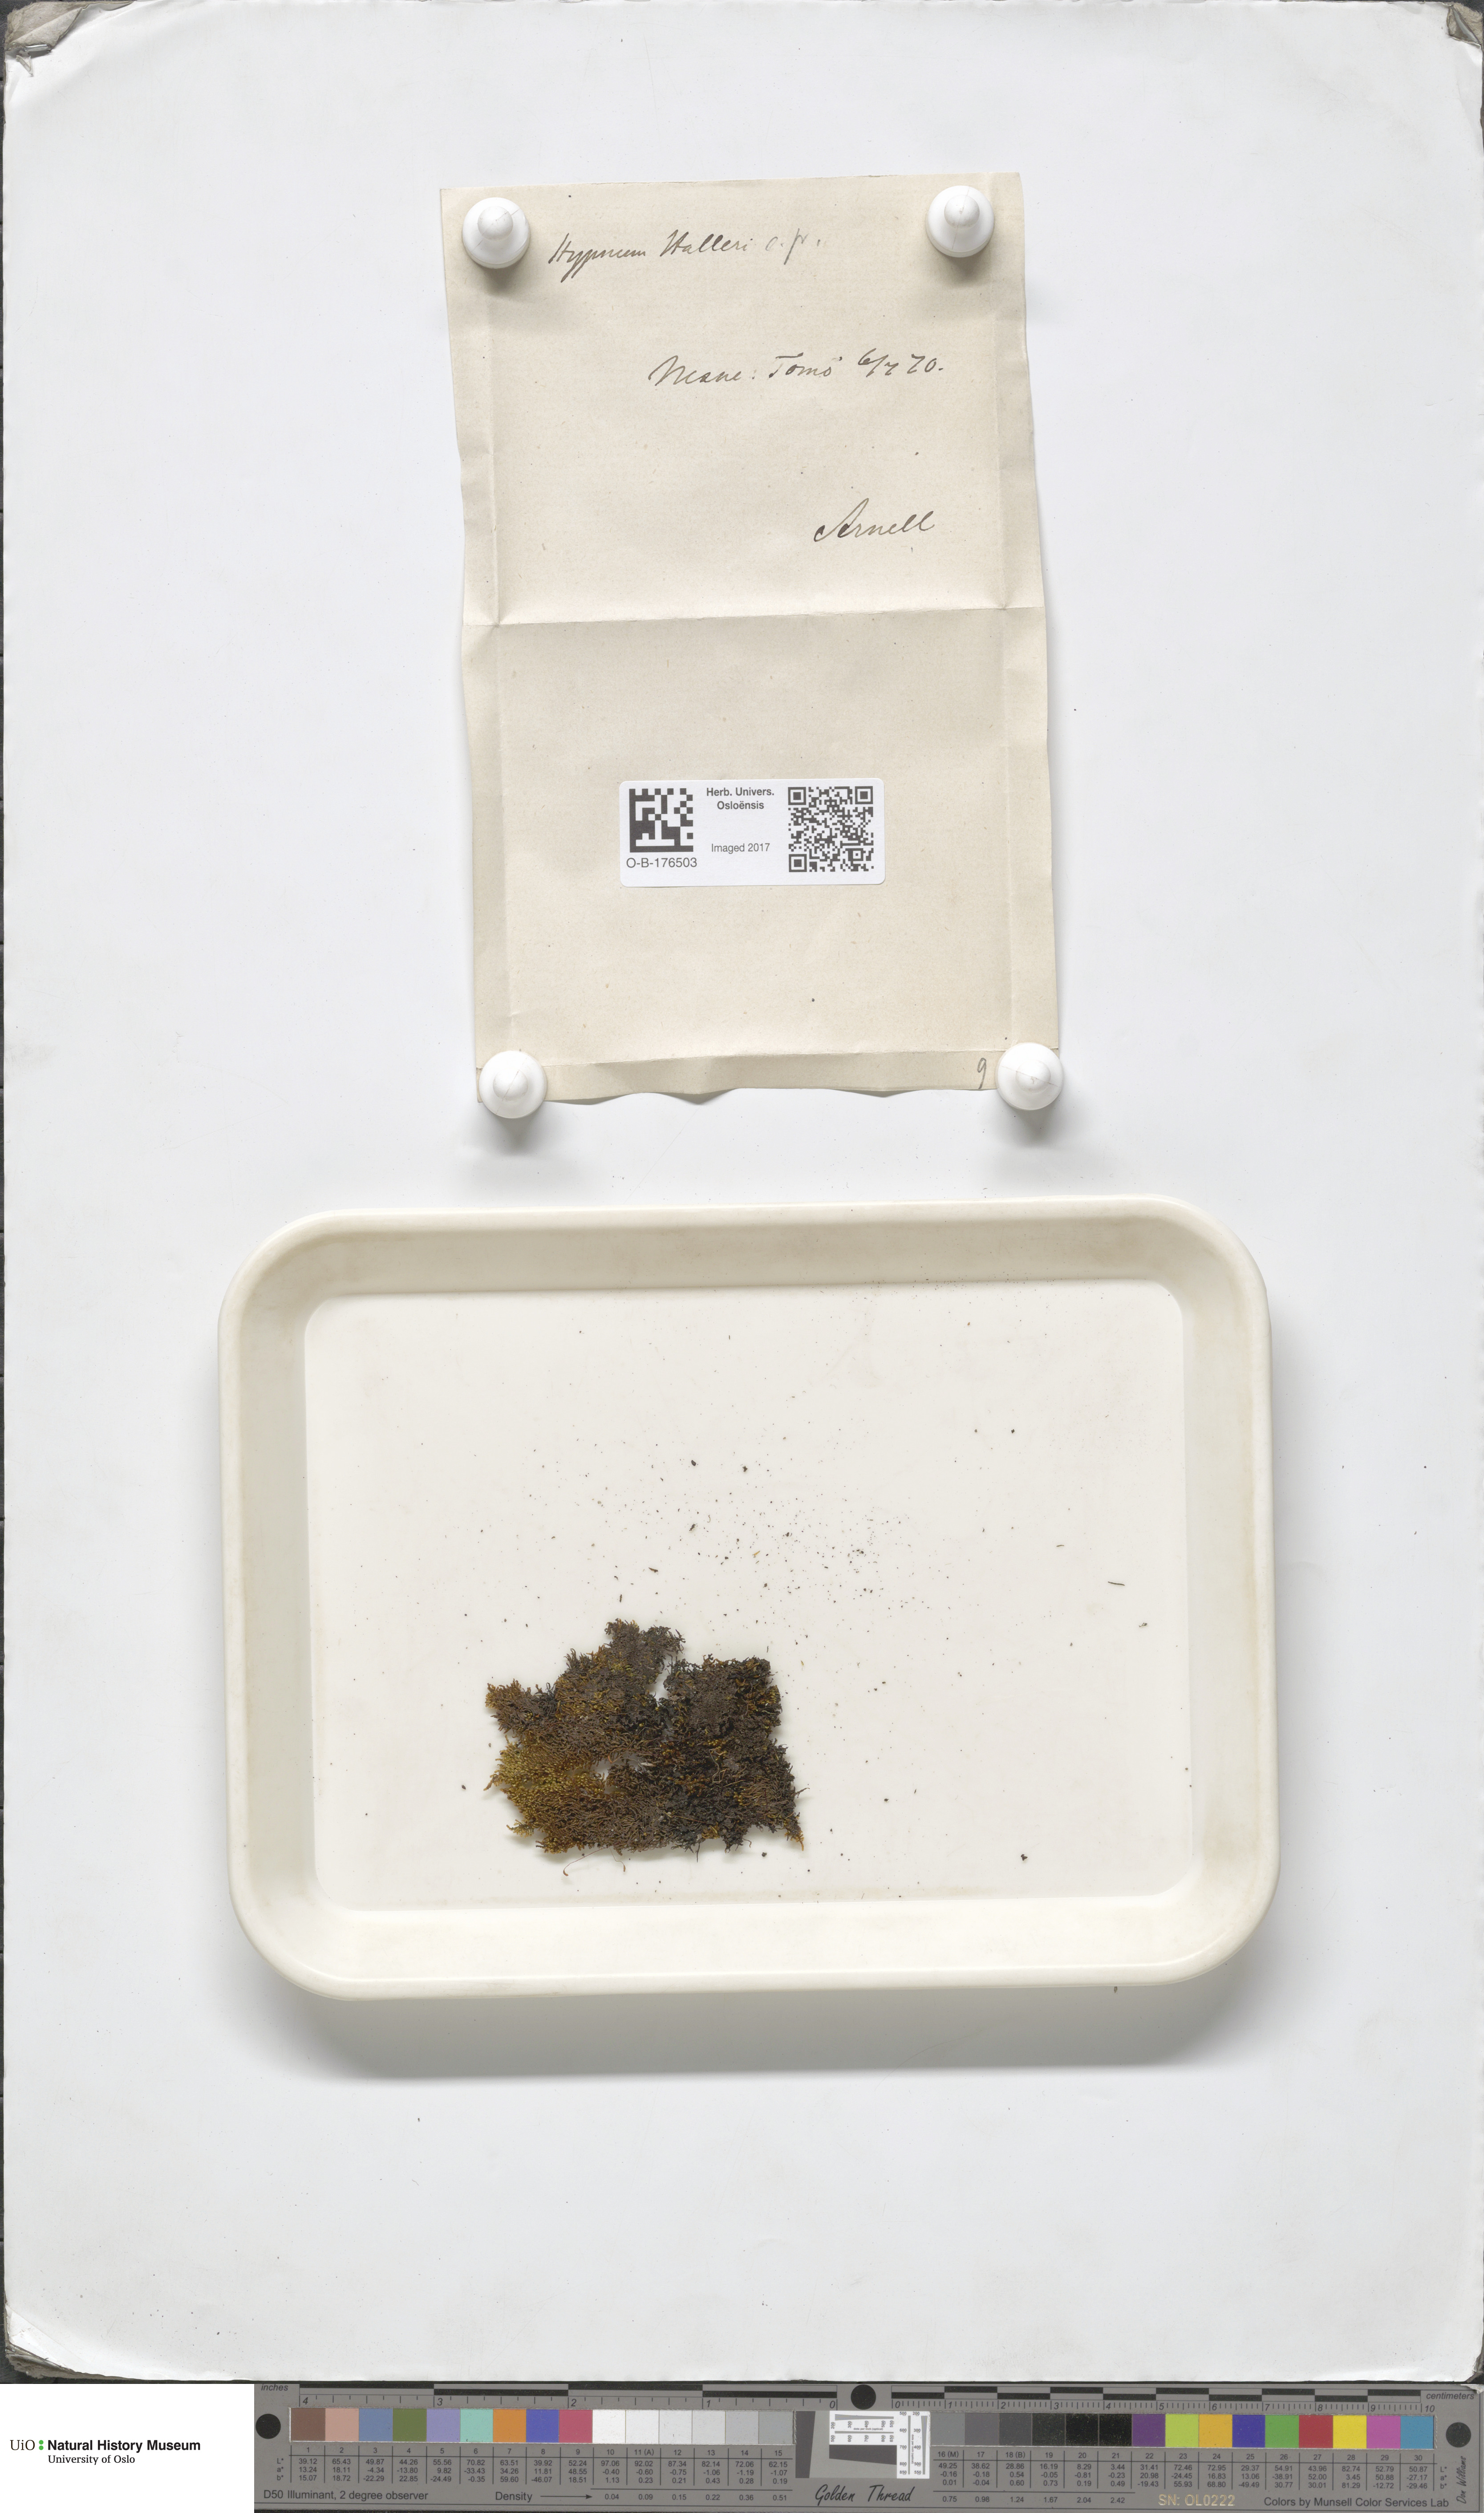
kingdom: Plantae
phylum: Bryophyta
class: Bryopsida
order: Hypnales
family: Amblystegiaceae
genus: Campylophyllum
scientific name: Campylophyllum halleri
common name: Haller's fine wet moss
